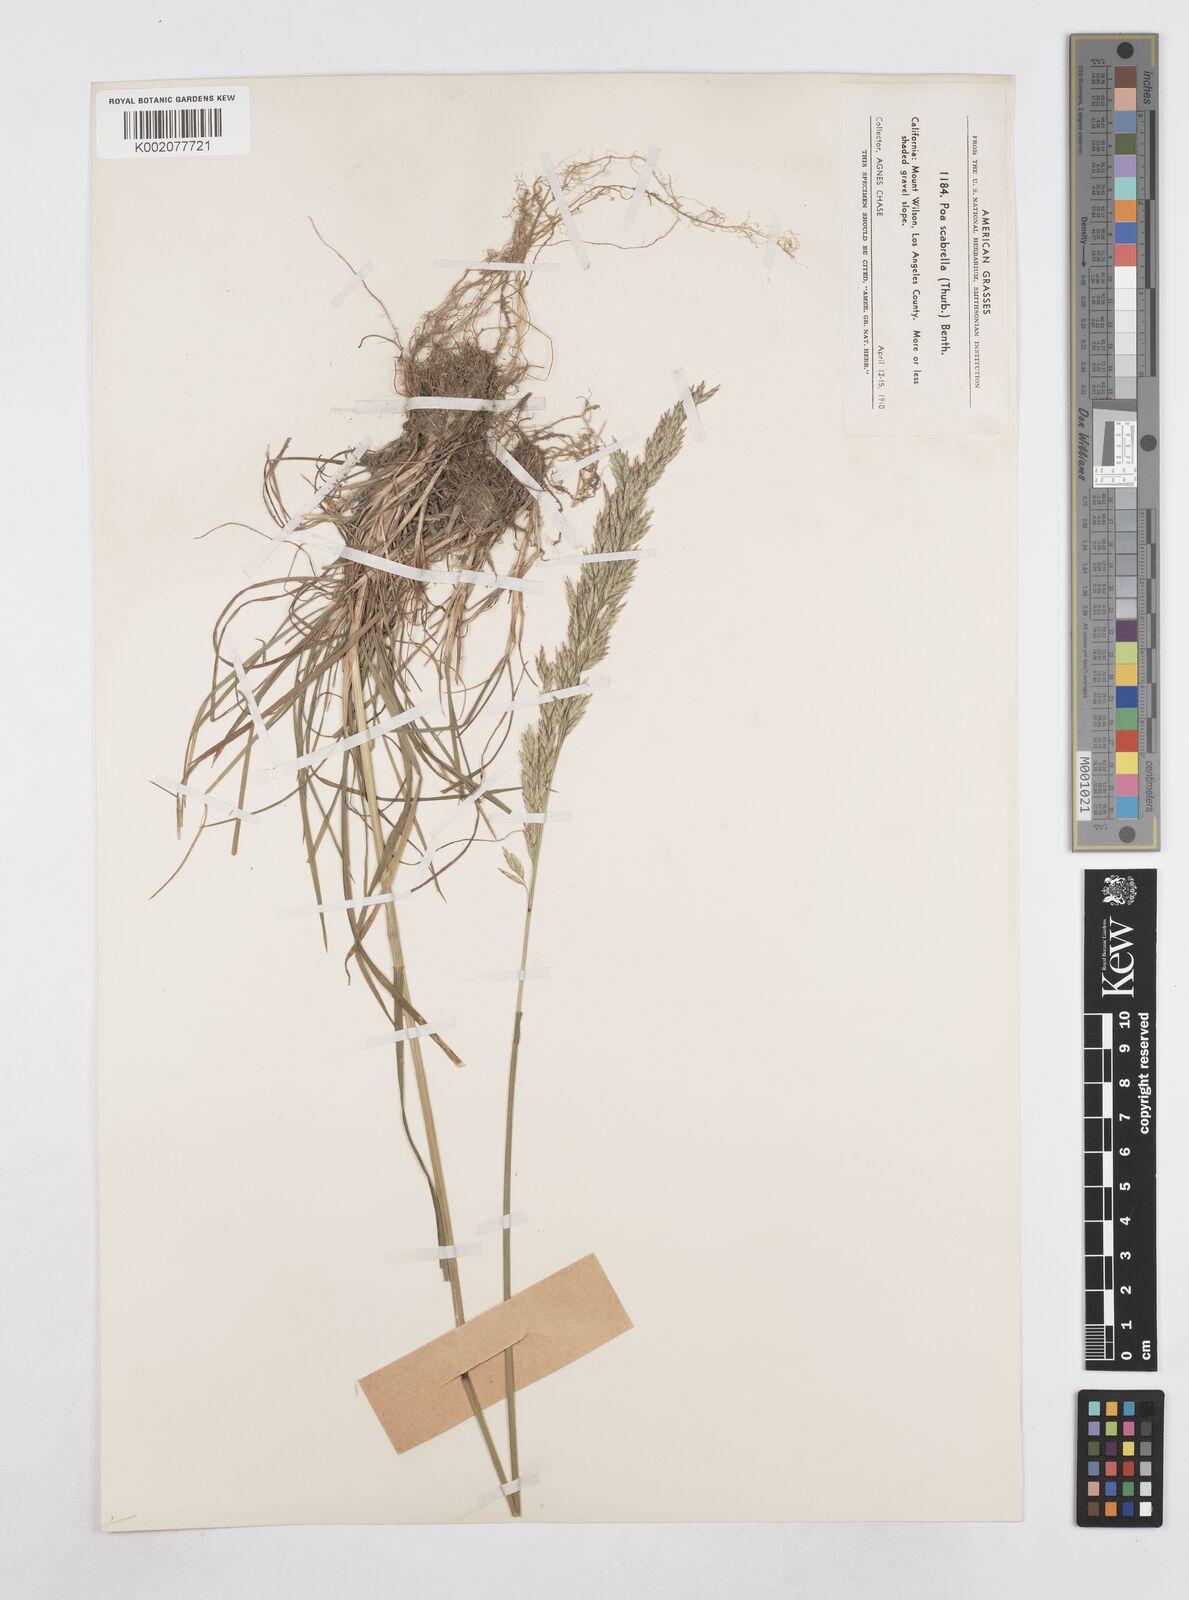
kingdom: Plantae
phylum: Tracheophyta
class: Liliopsida
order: Poales
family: Poaceae
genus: Poa
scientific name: Poa secunda
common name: Sandberg bluegrass
